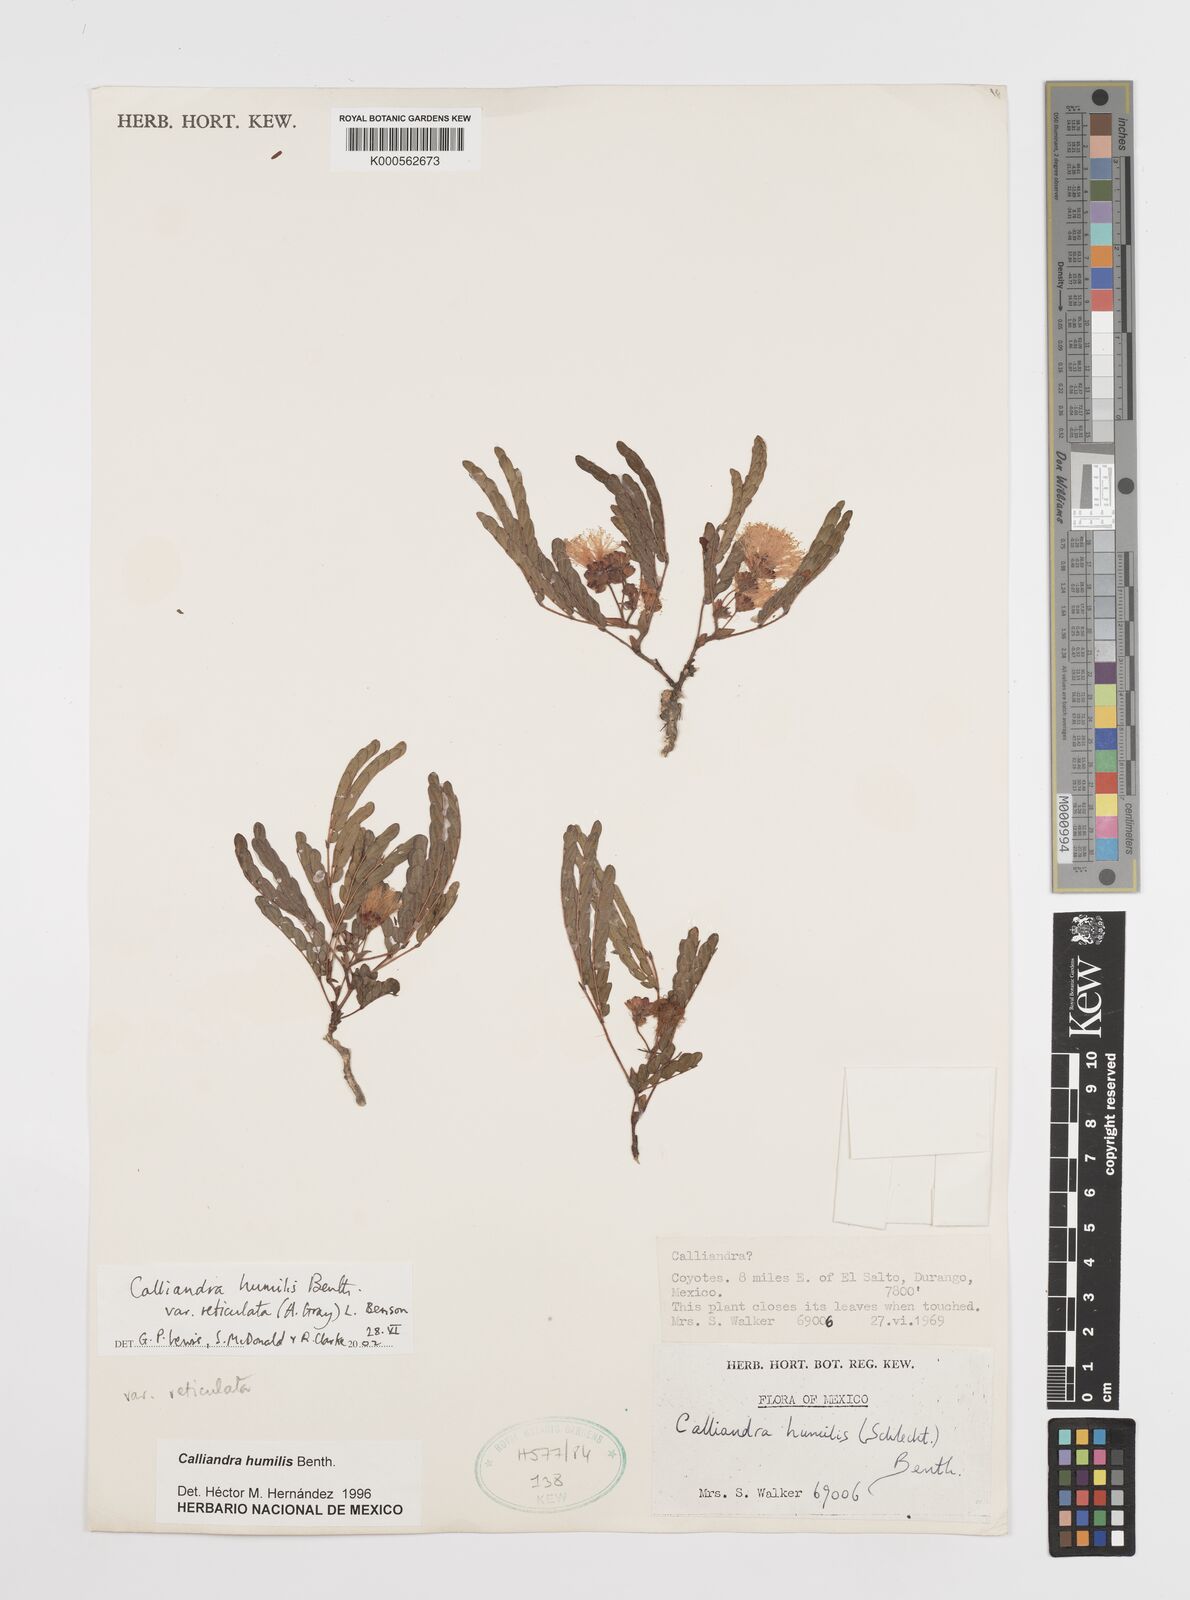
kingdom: Plantae
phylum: Tracheophyta
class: Magnoliopsida
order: Fabales
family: Fabaceae
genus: Calliandra
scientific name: Calliandra humilis
